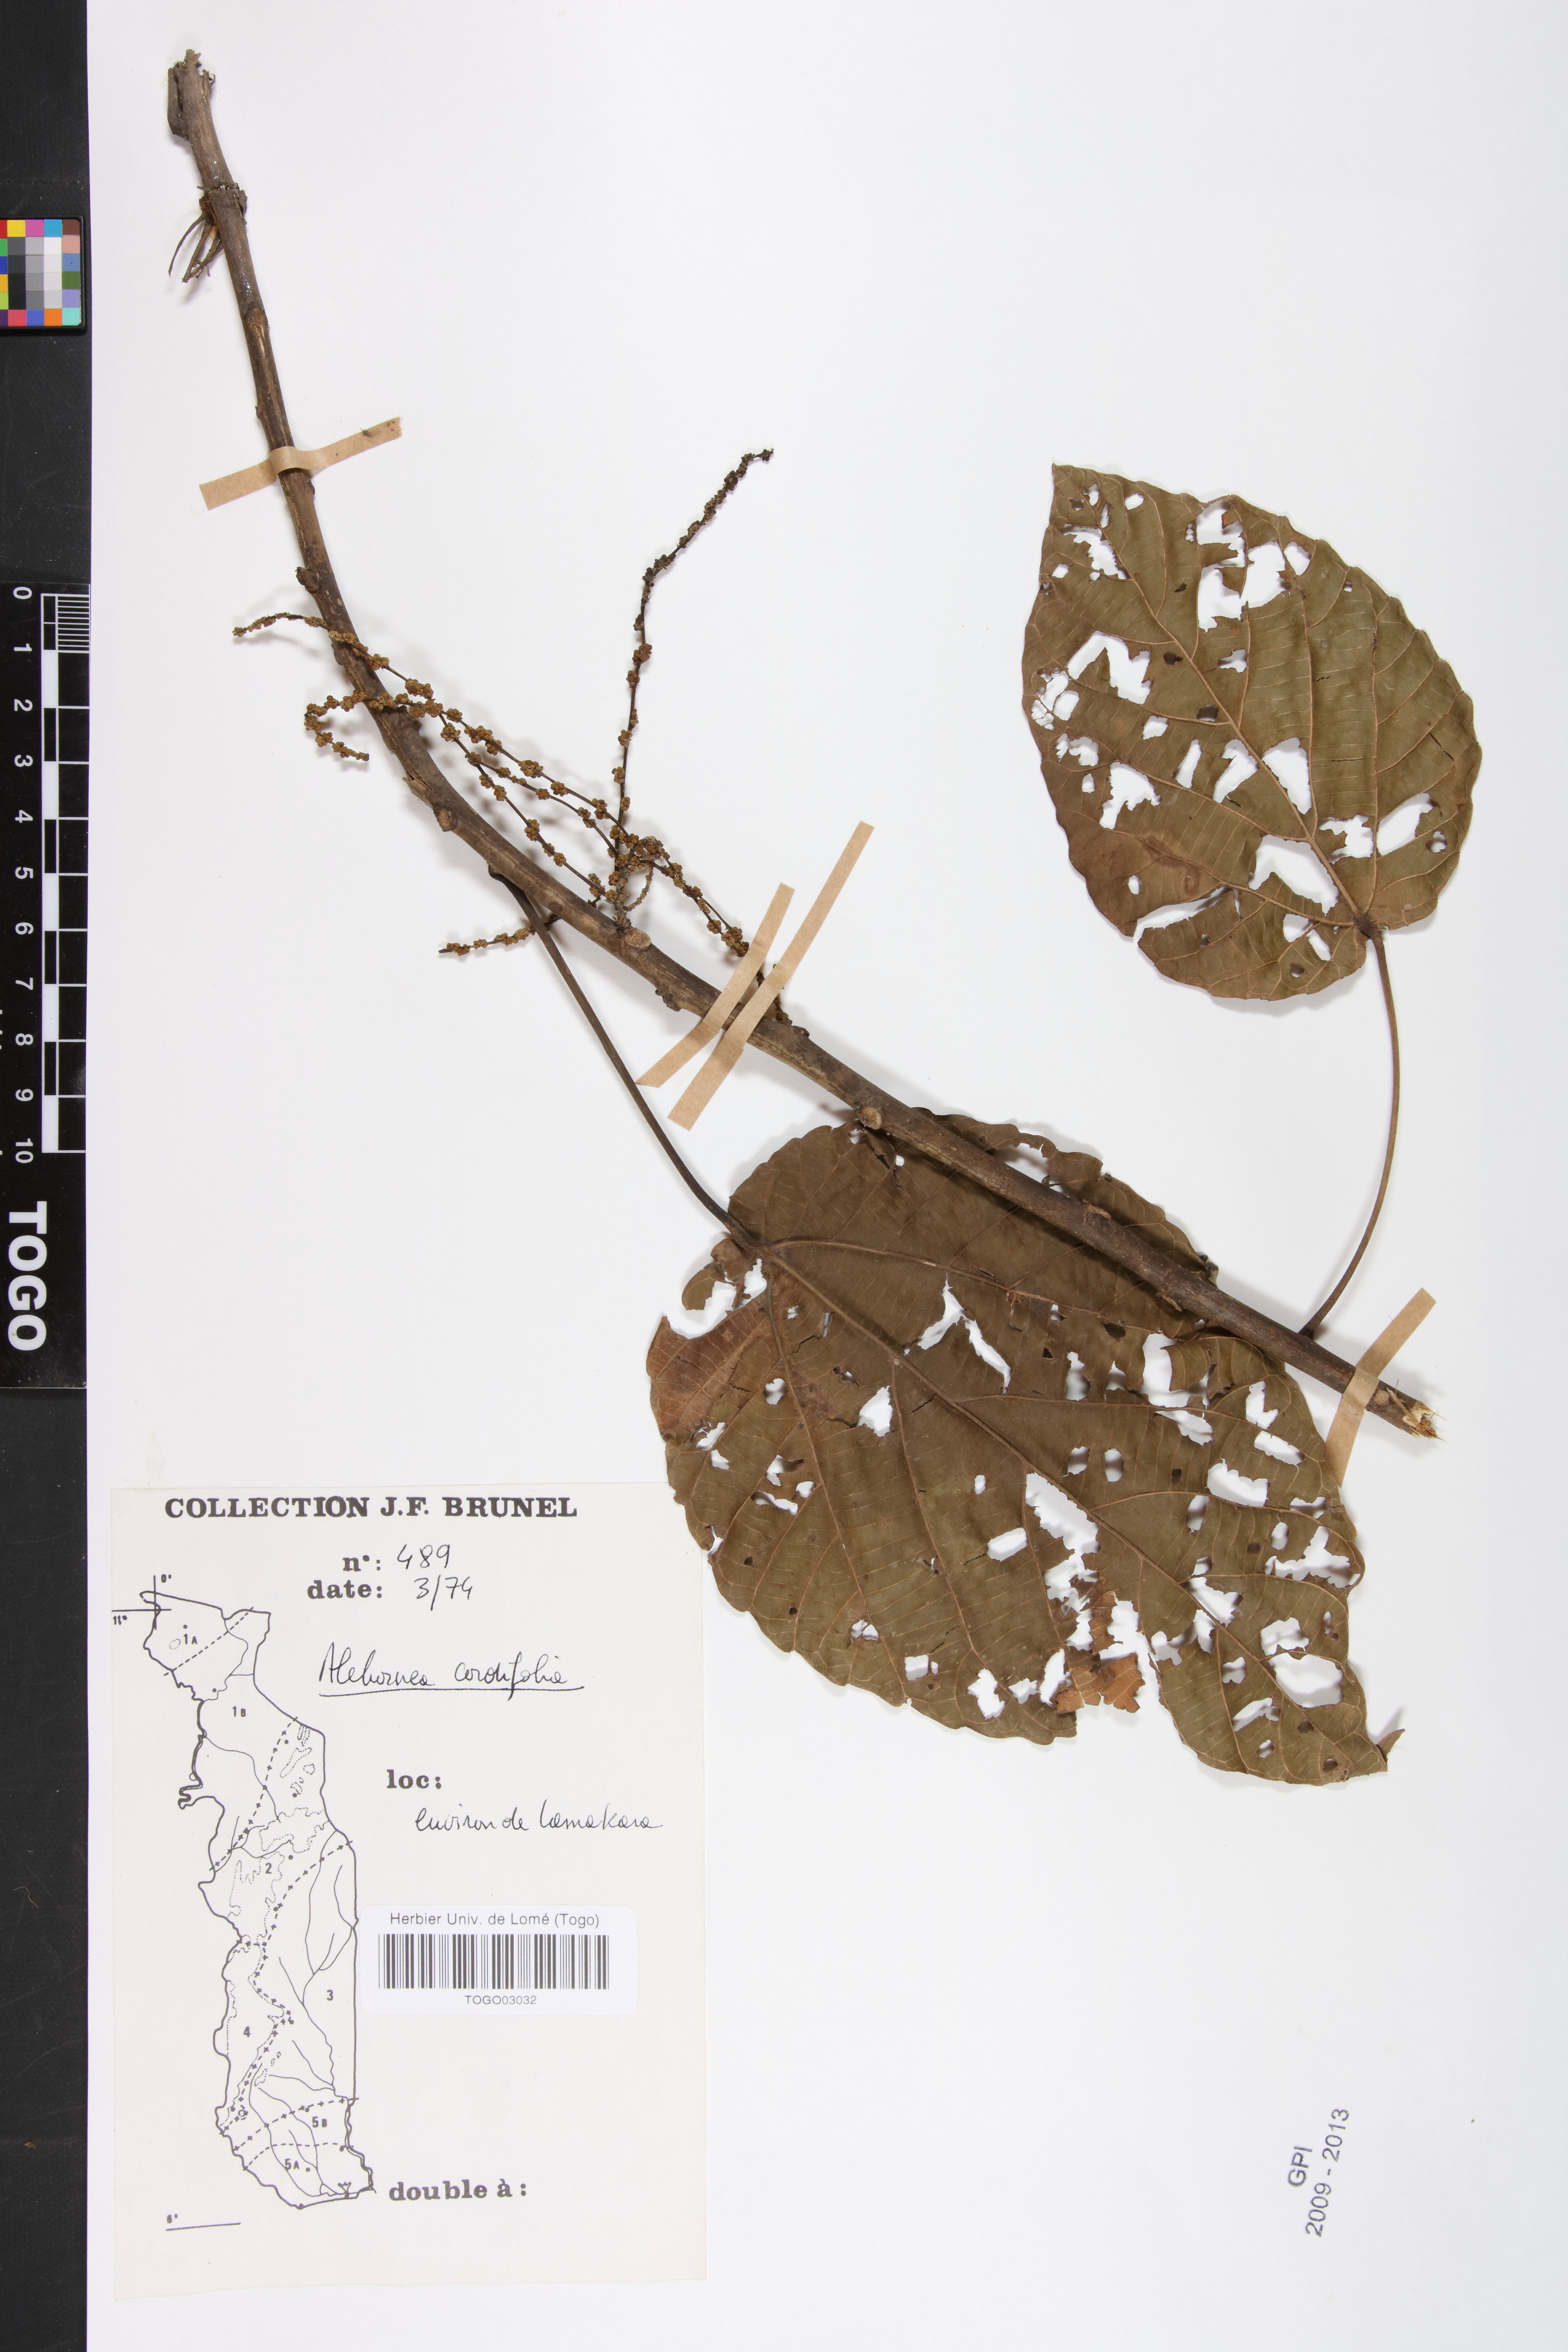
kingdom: Plantae
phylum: Tracheophyta
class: Magnoliopsida
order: Malpighiales
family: Euphorbiaceae
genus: Alchornea
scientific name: Alchornea cordifolia
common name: Christmasbush
